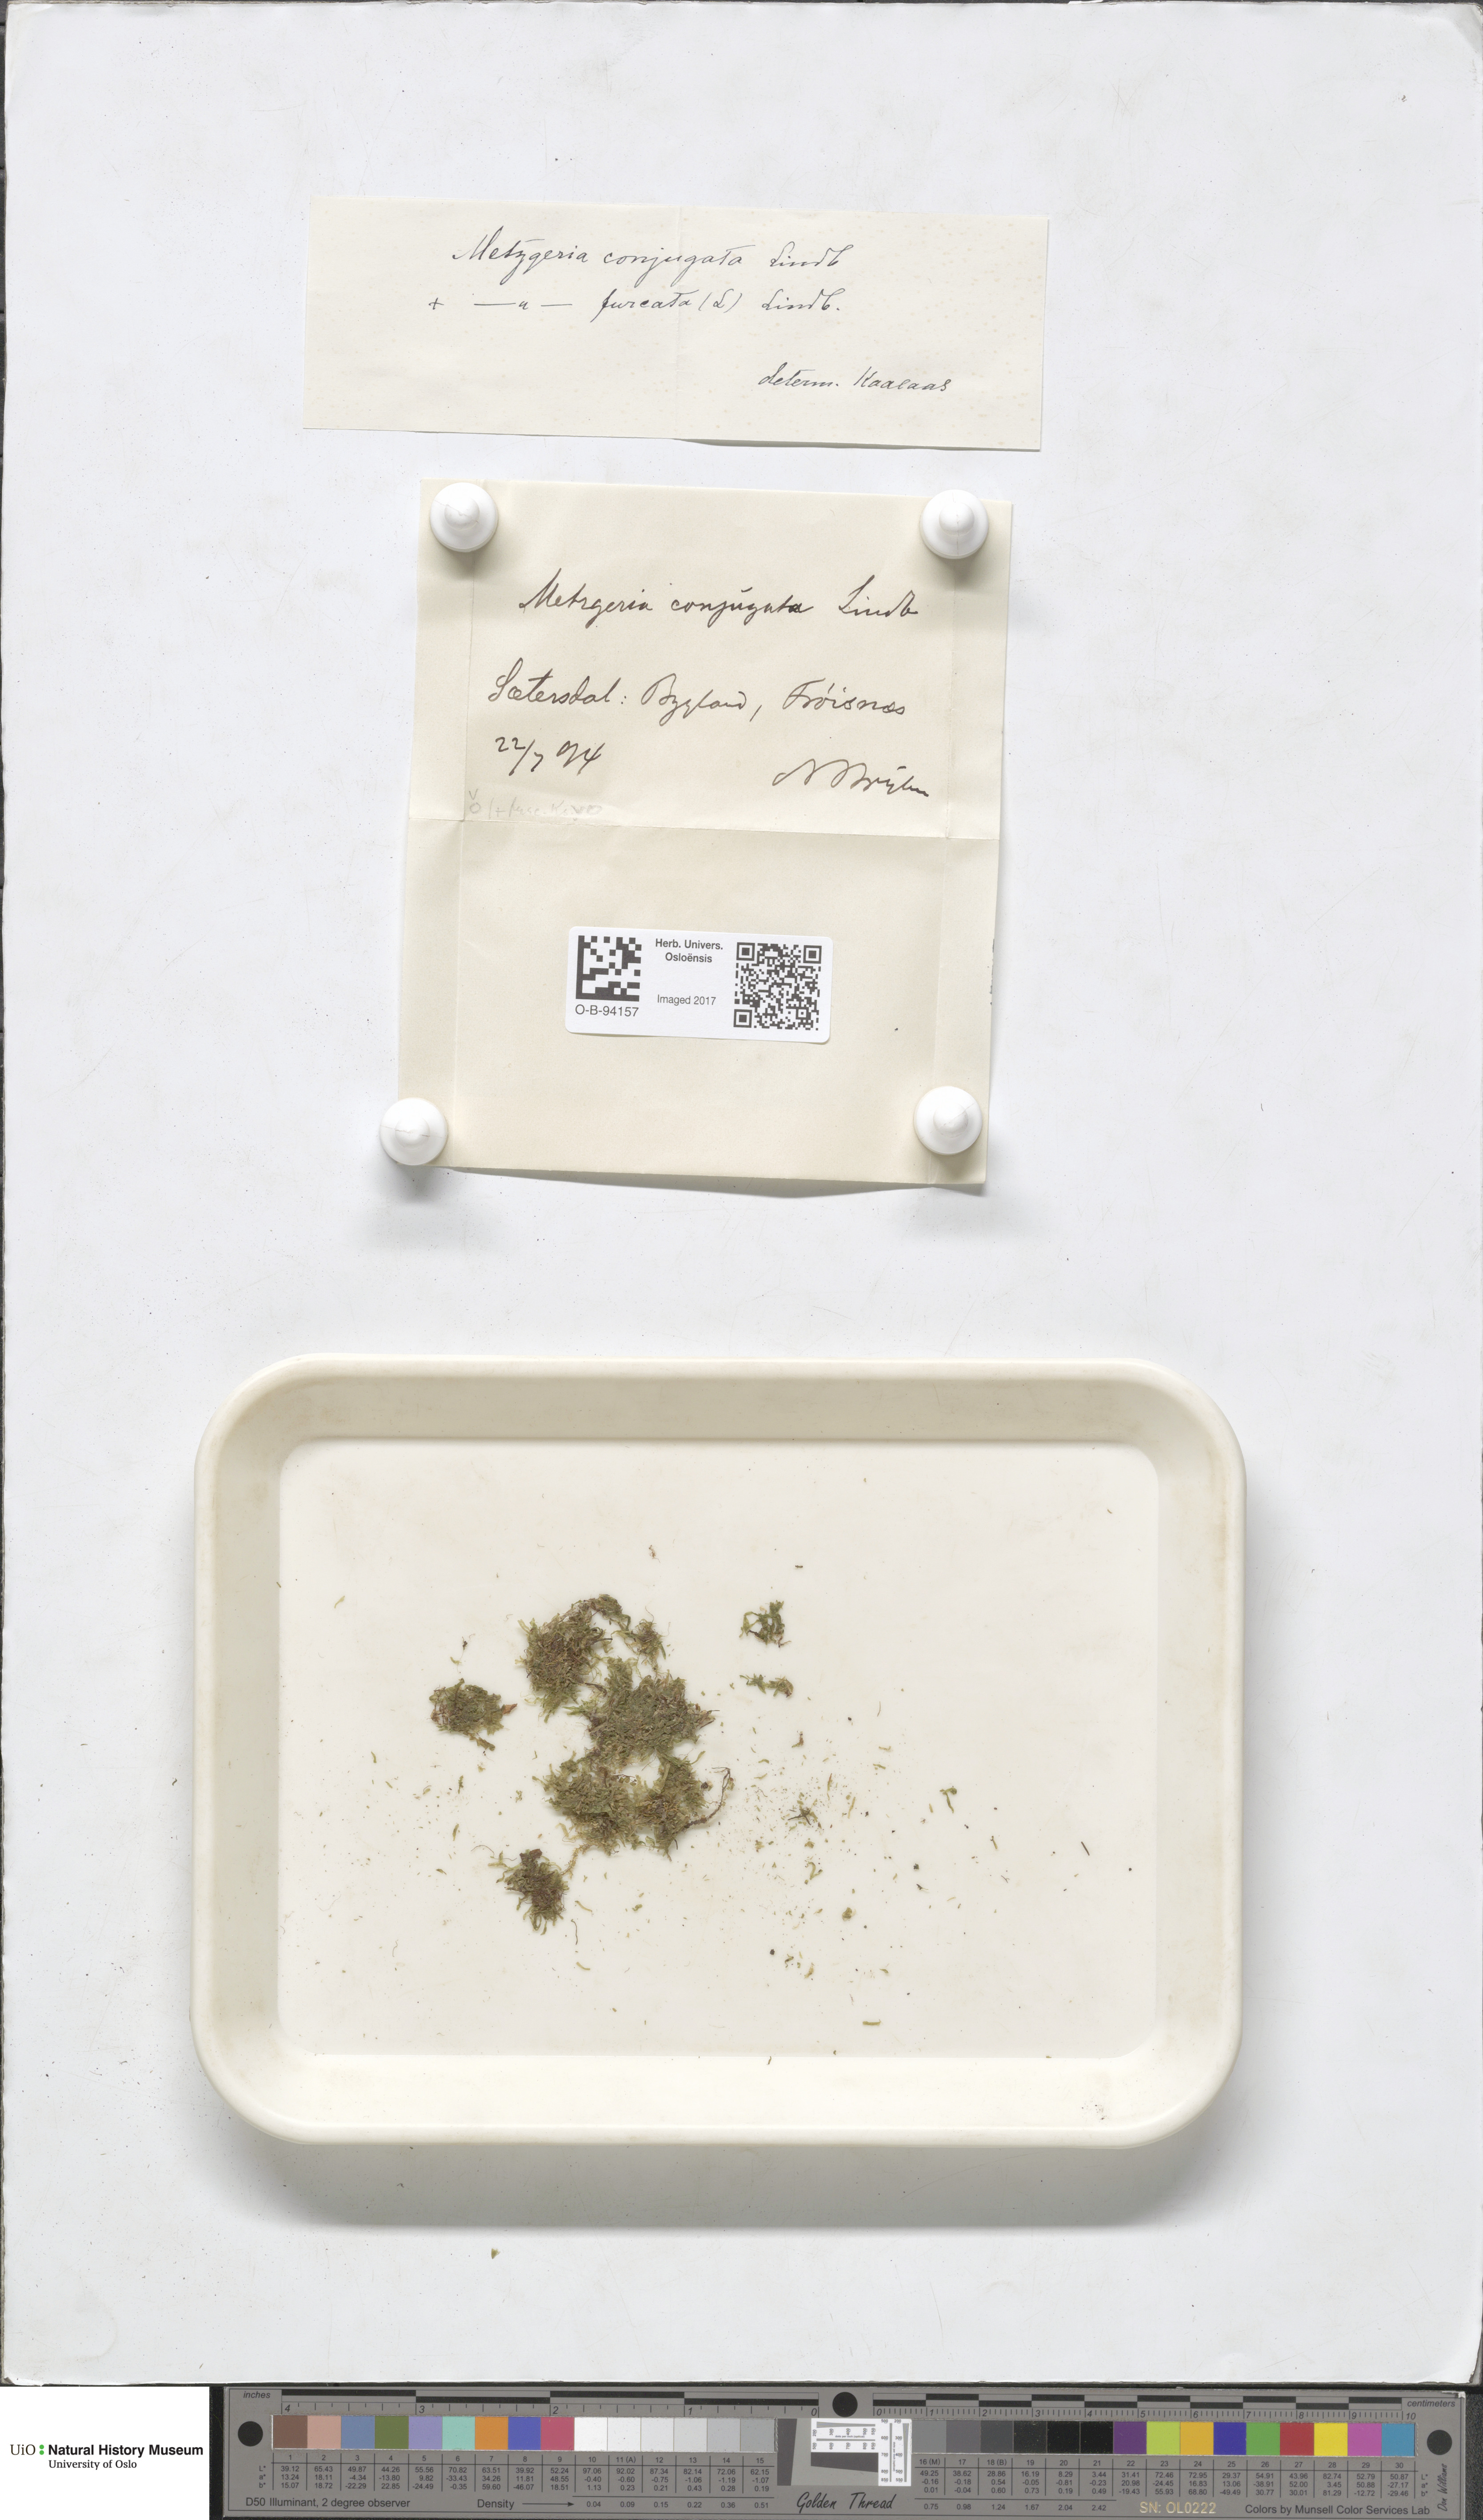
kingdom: Plantae
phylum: Marchantiophyta
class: Jungermanniopsida
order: Metzgeriales
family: Metzgeriaceae
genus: Metzgeria
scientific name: Metzgeria conjugata
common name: Rock veilwort
